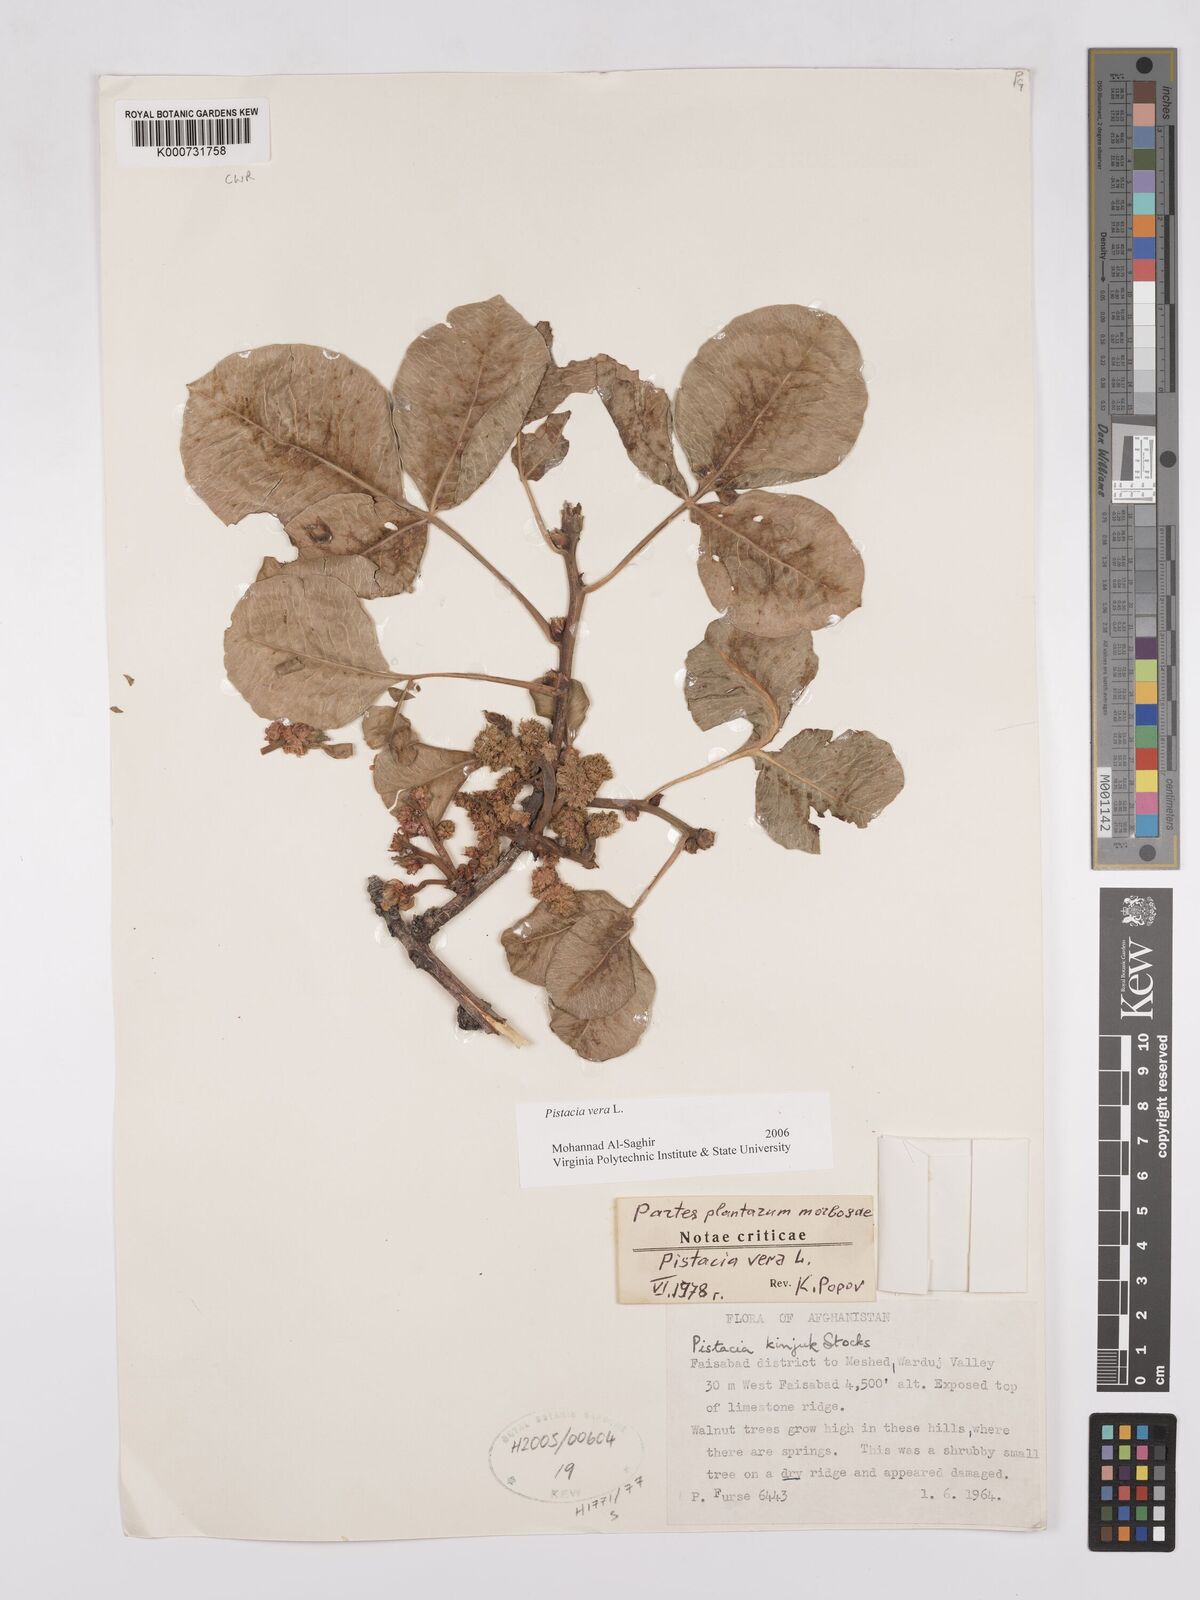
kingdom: Plantae
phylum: Tracheophyta
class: Magnoliopsida
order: Sapindales
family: Anacardiaceae
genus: Pistacia
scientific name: Pistacia vera
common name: Pistachio
